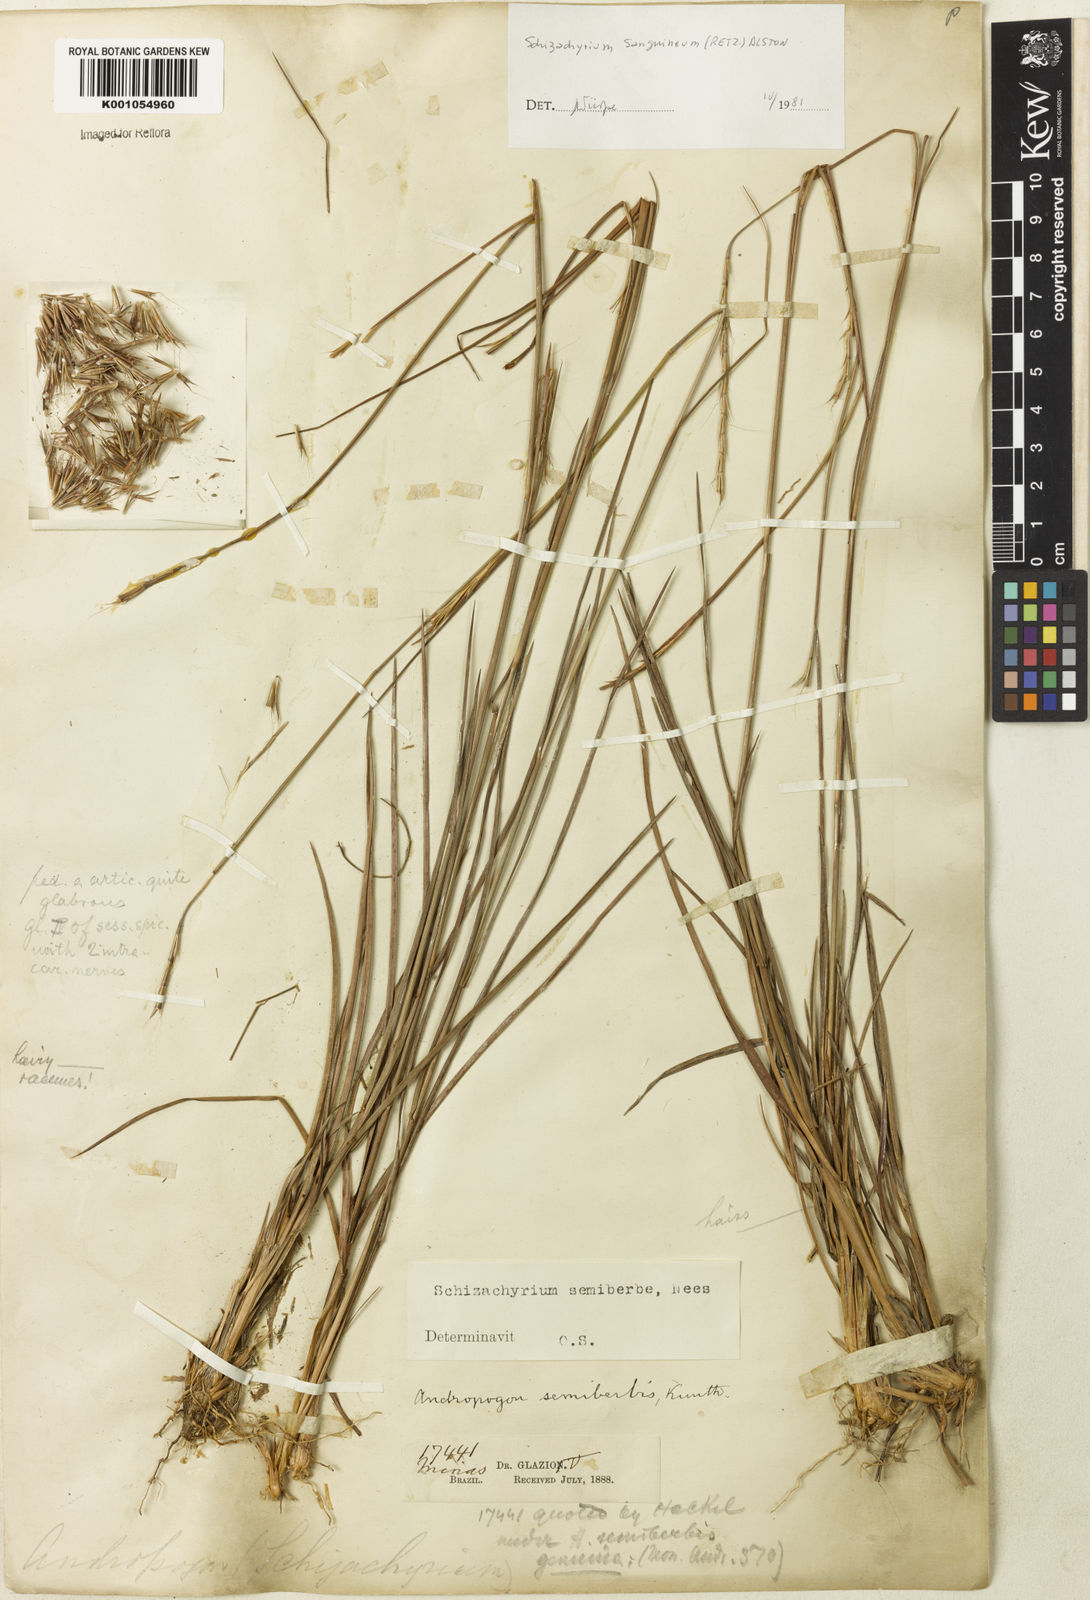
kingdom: Plantae
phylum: Tracheophyta
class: Liliopsida
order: Poales
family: Poaceae
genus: Schizachyrium
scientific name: Schizachyrium sanguineum
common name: Crimson bluestem
